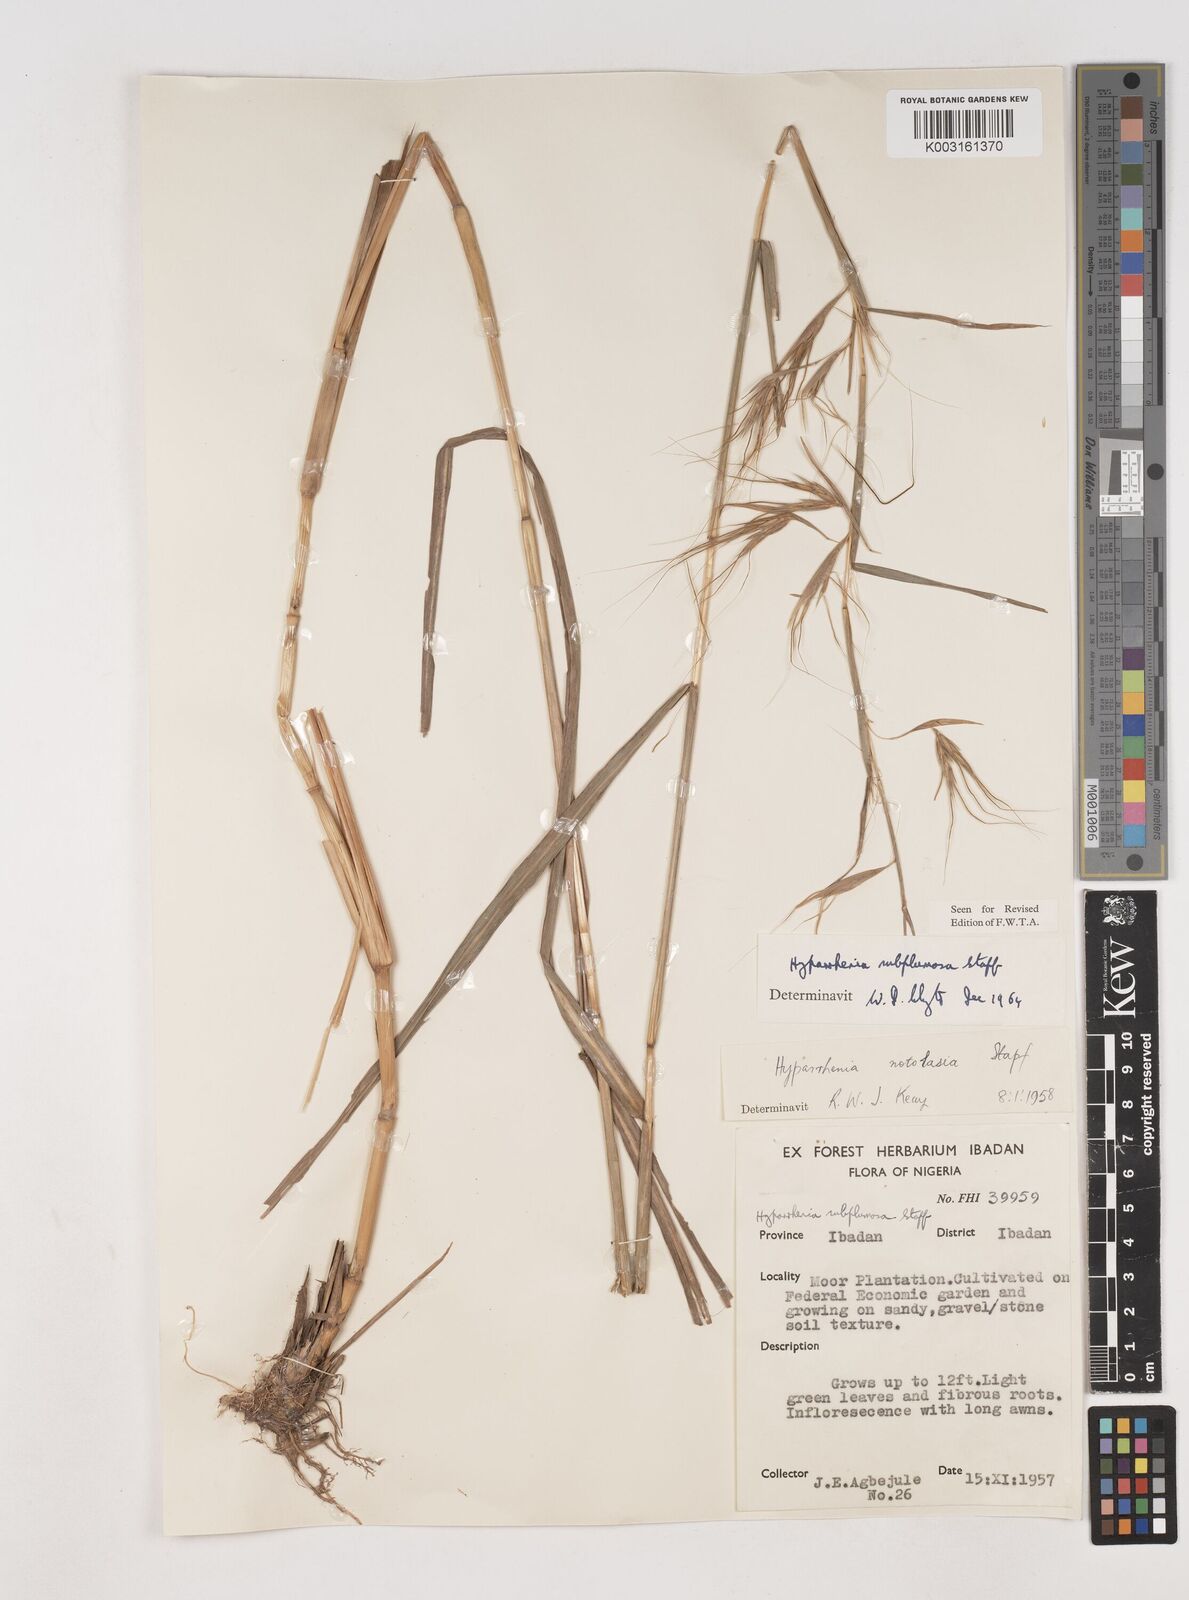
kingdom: Plantae
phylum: Tracheophyta
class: Liliopsida
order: Poales
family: Poaceae
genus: Hyparrhenia
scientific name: Hyparrhenia subplumosa
